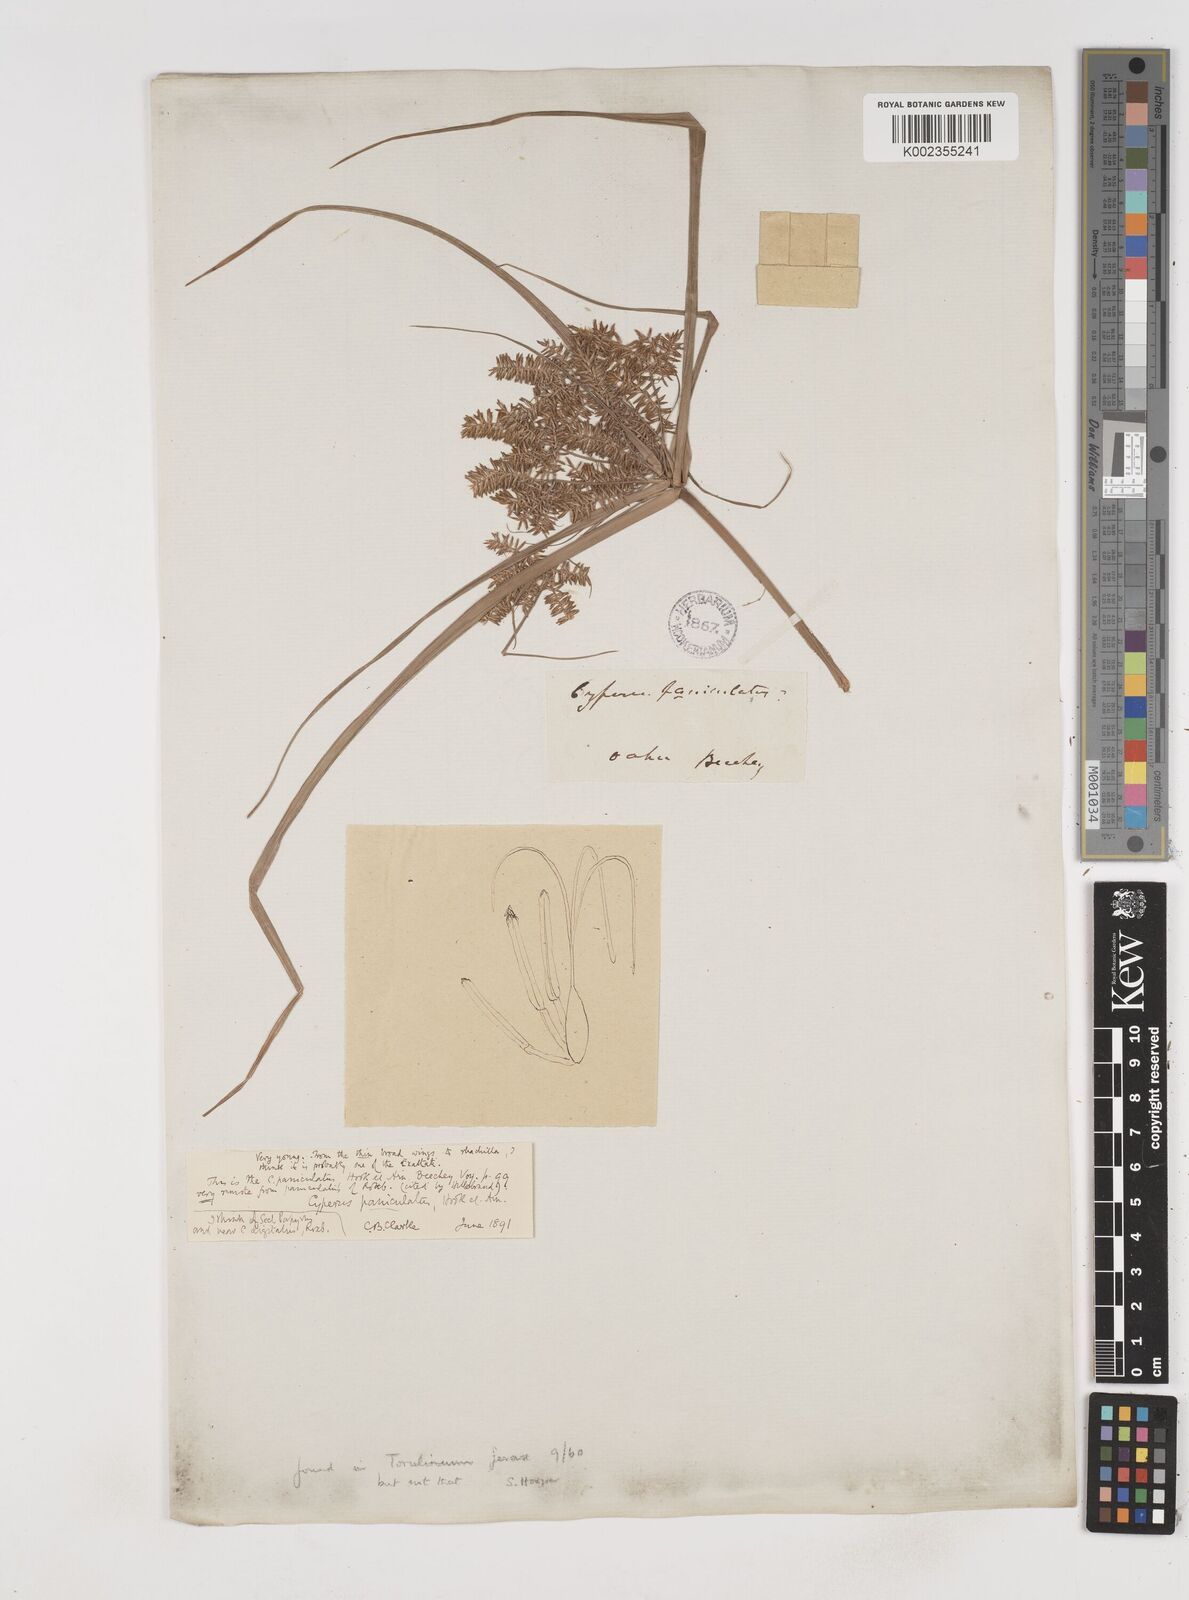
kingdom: Plantae
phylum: Tracheophyta
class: Liliopsida
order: Poales
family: Cyperaceae
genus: Cyperus
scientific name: Cyperus
